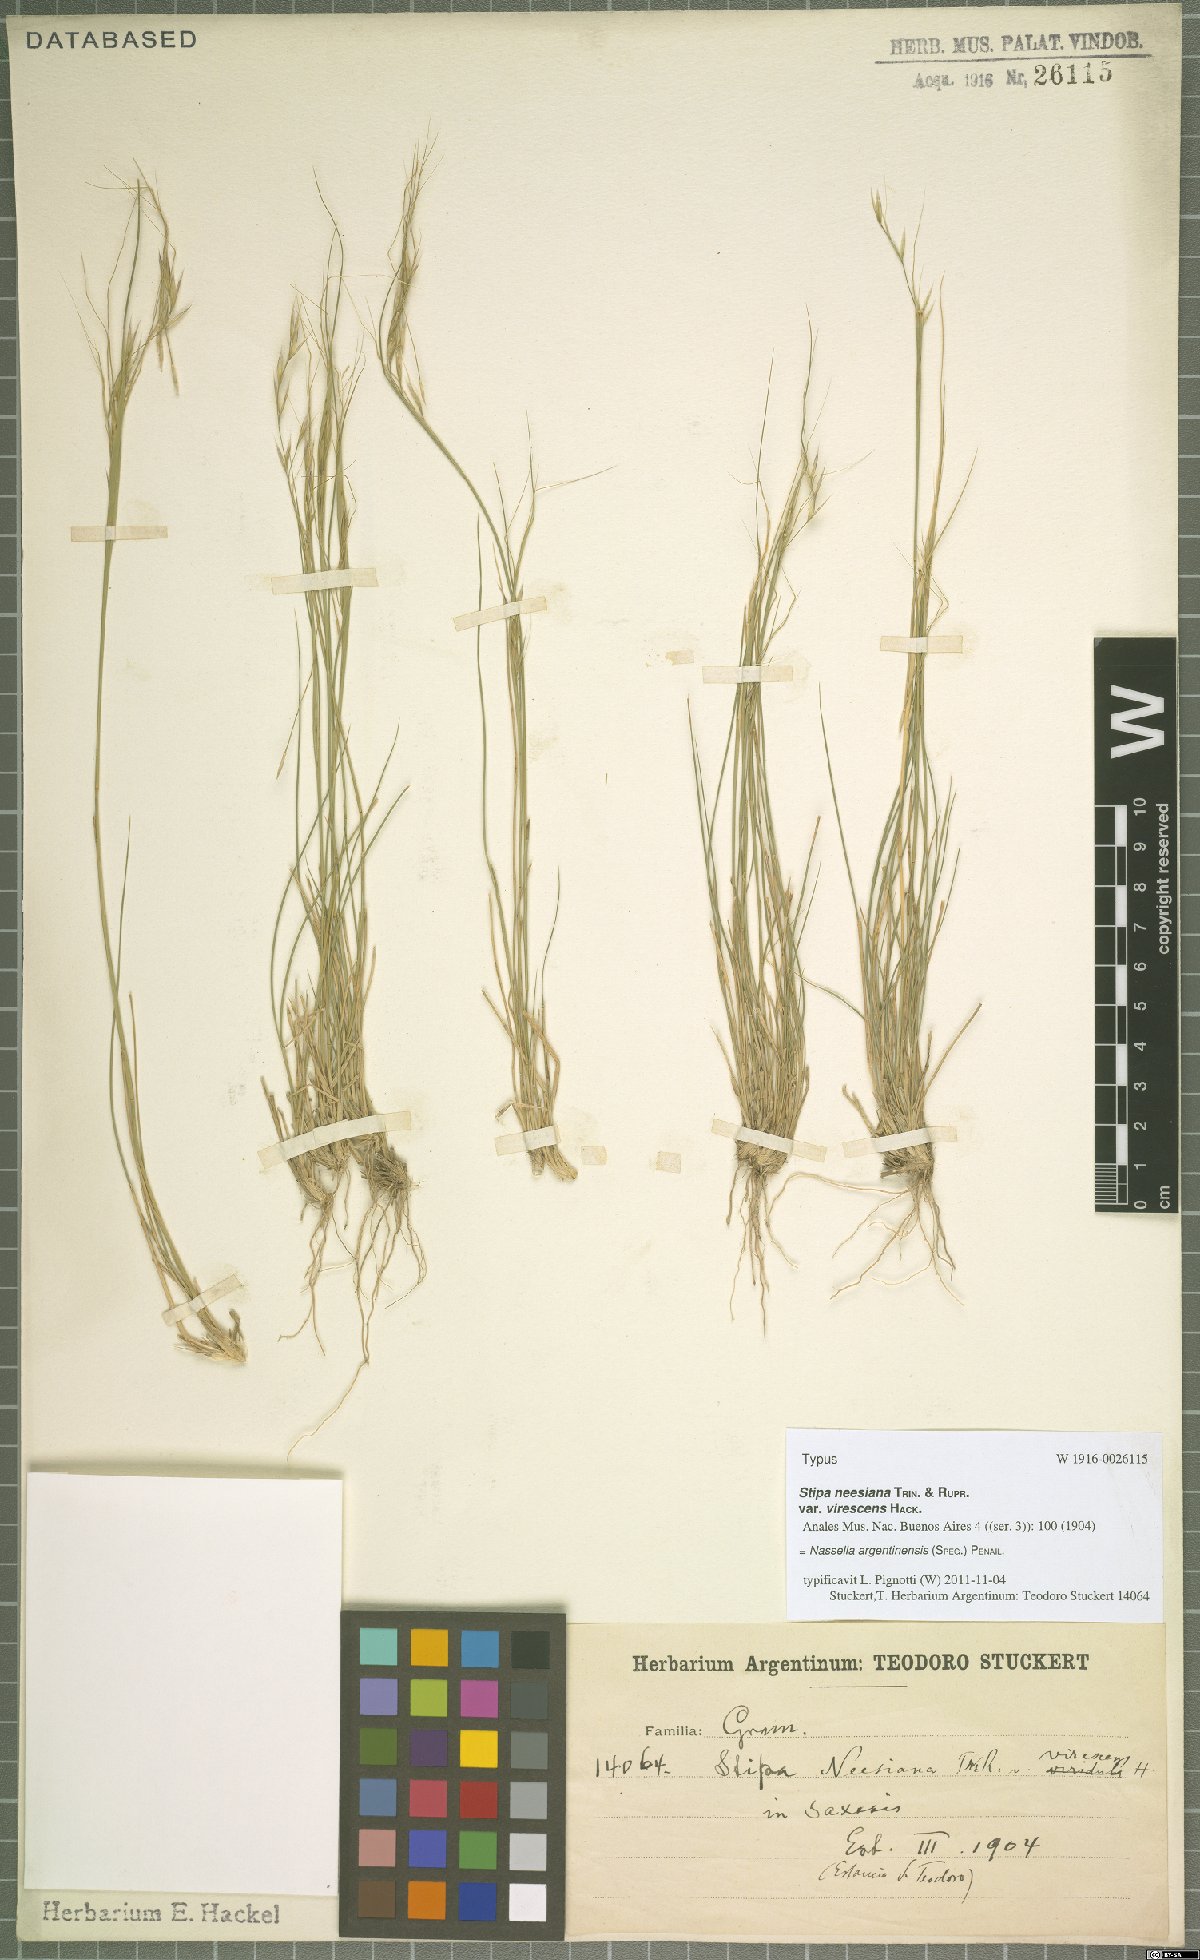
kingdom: Plantae
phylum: Tracheophyta
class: Liliopsida
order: Poales
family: Poaceae
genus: Nassella
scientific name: Nassella argentinensis
